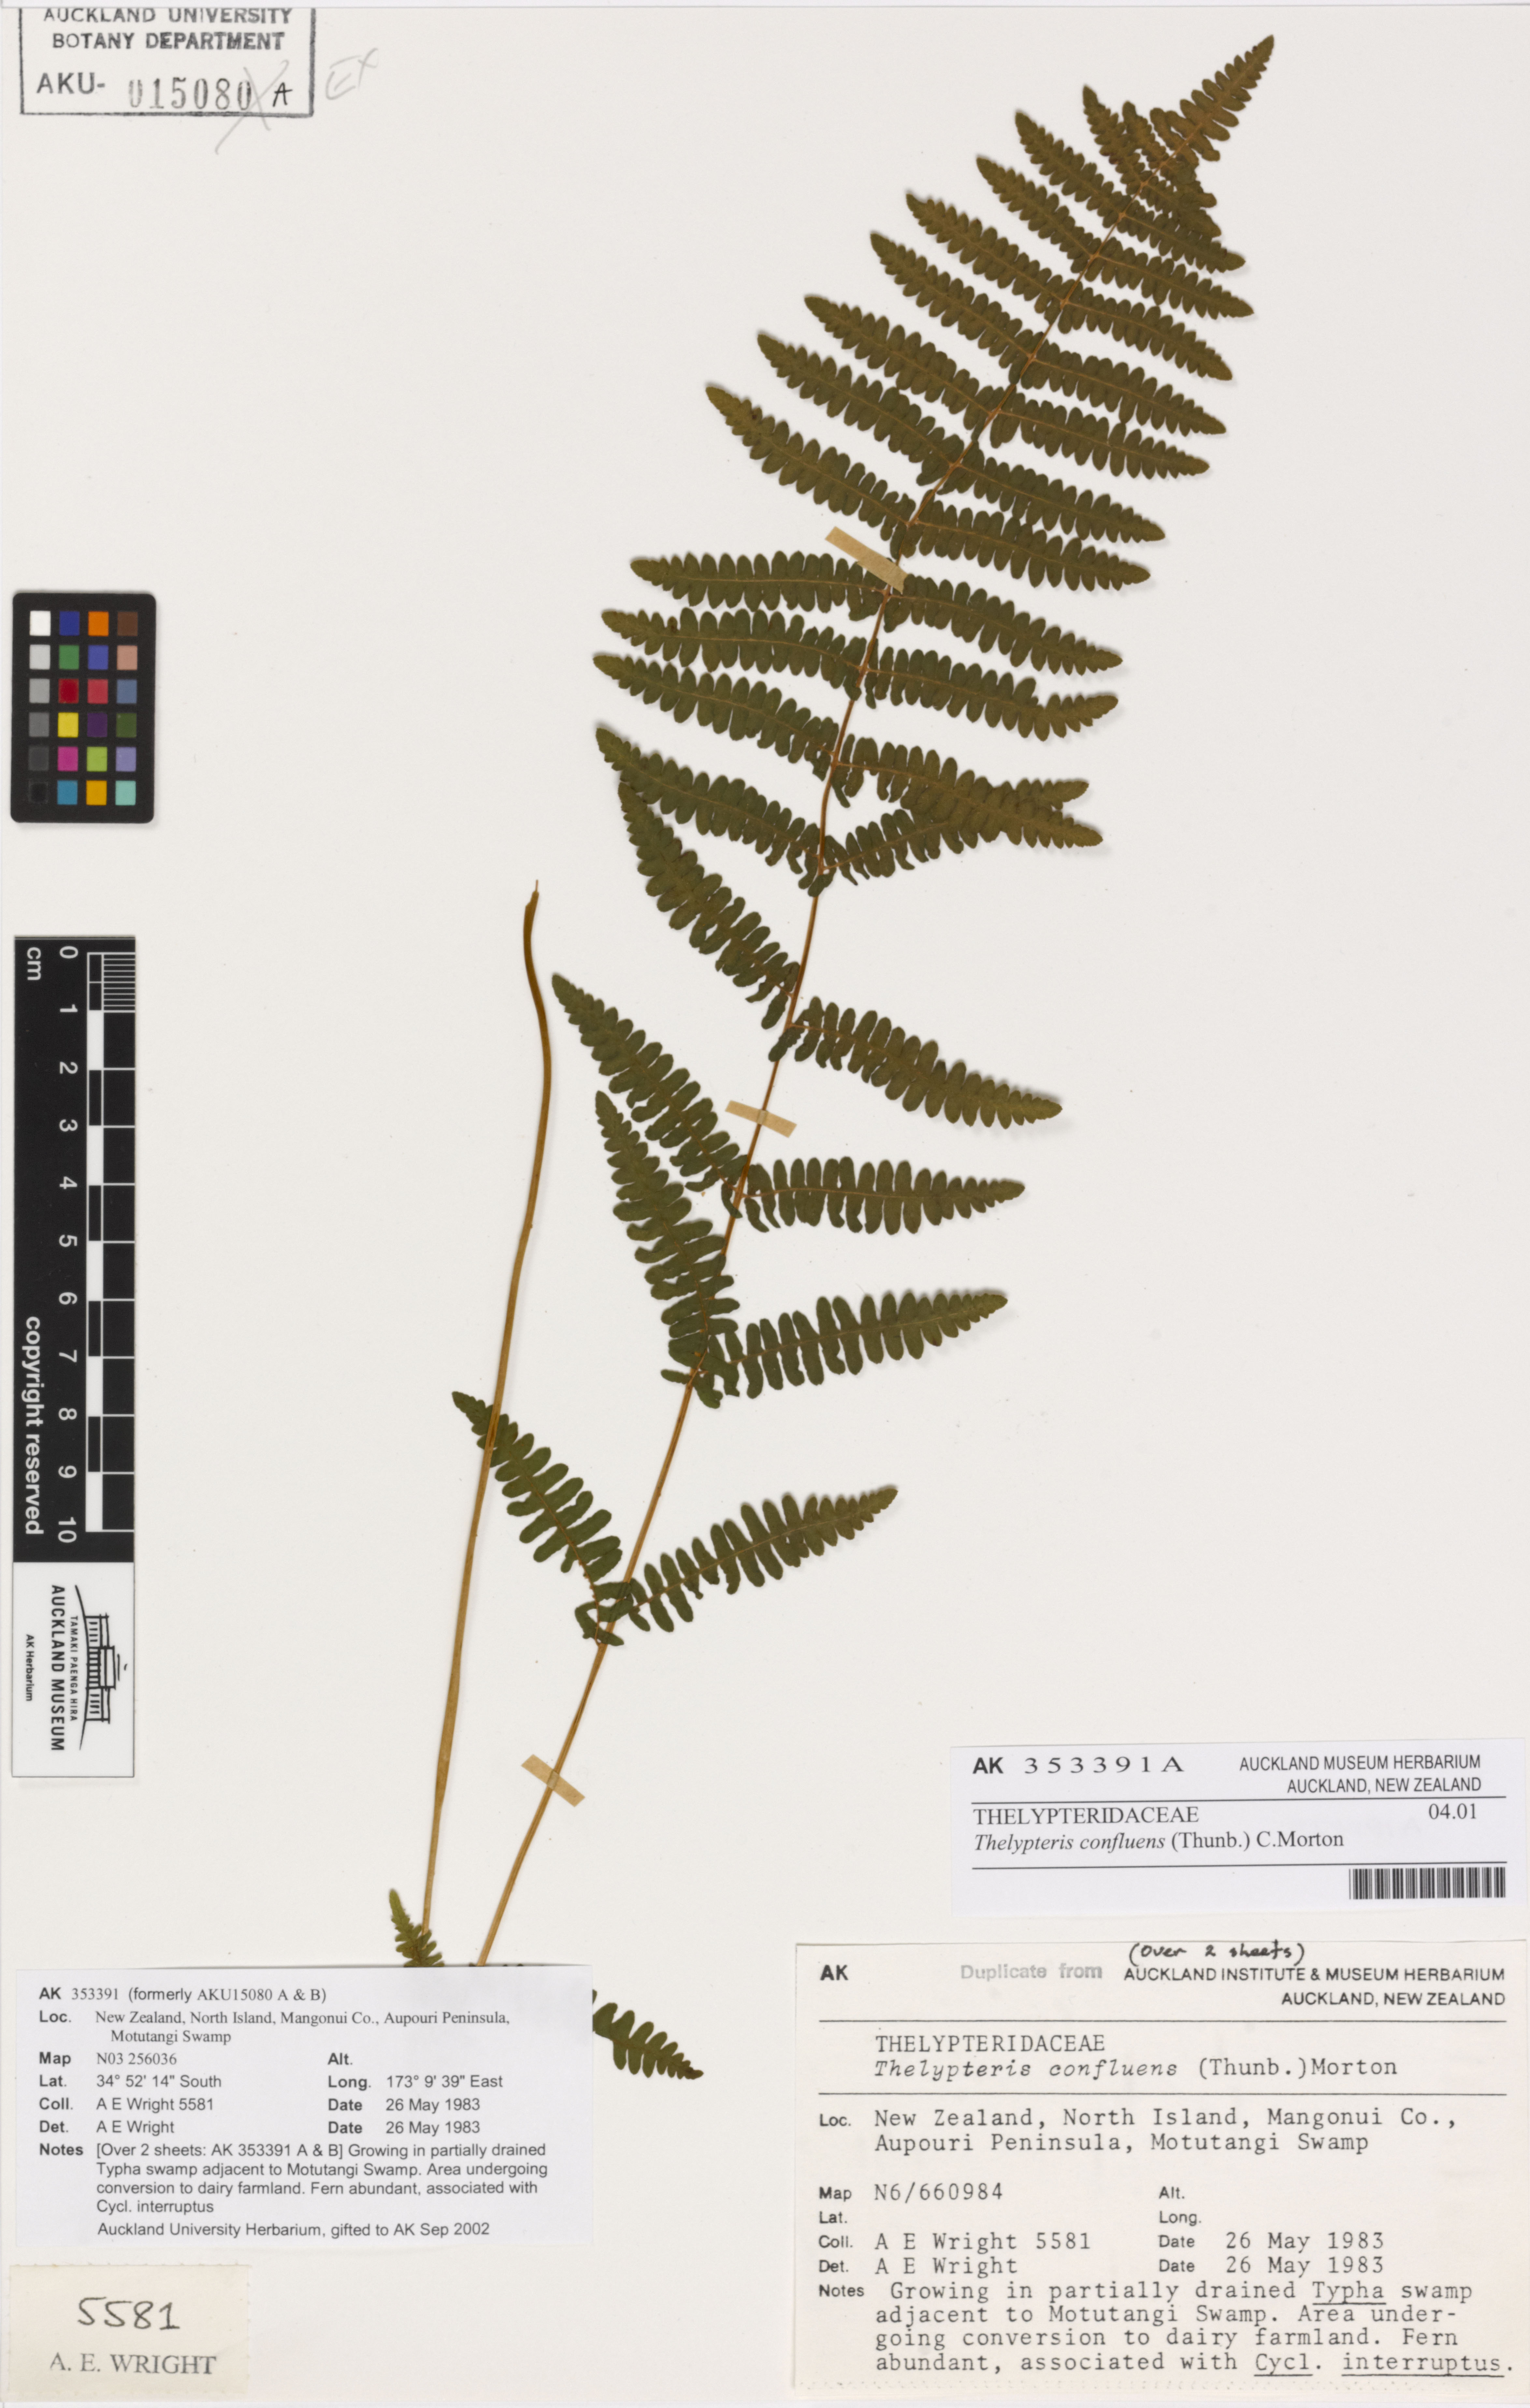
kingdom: Plantae
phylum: Tracheophyta
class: Polypodiopsida
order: Polypodiales
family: Thelypteridaceae
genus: Thelypteris
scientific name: Thelypteris confluens
